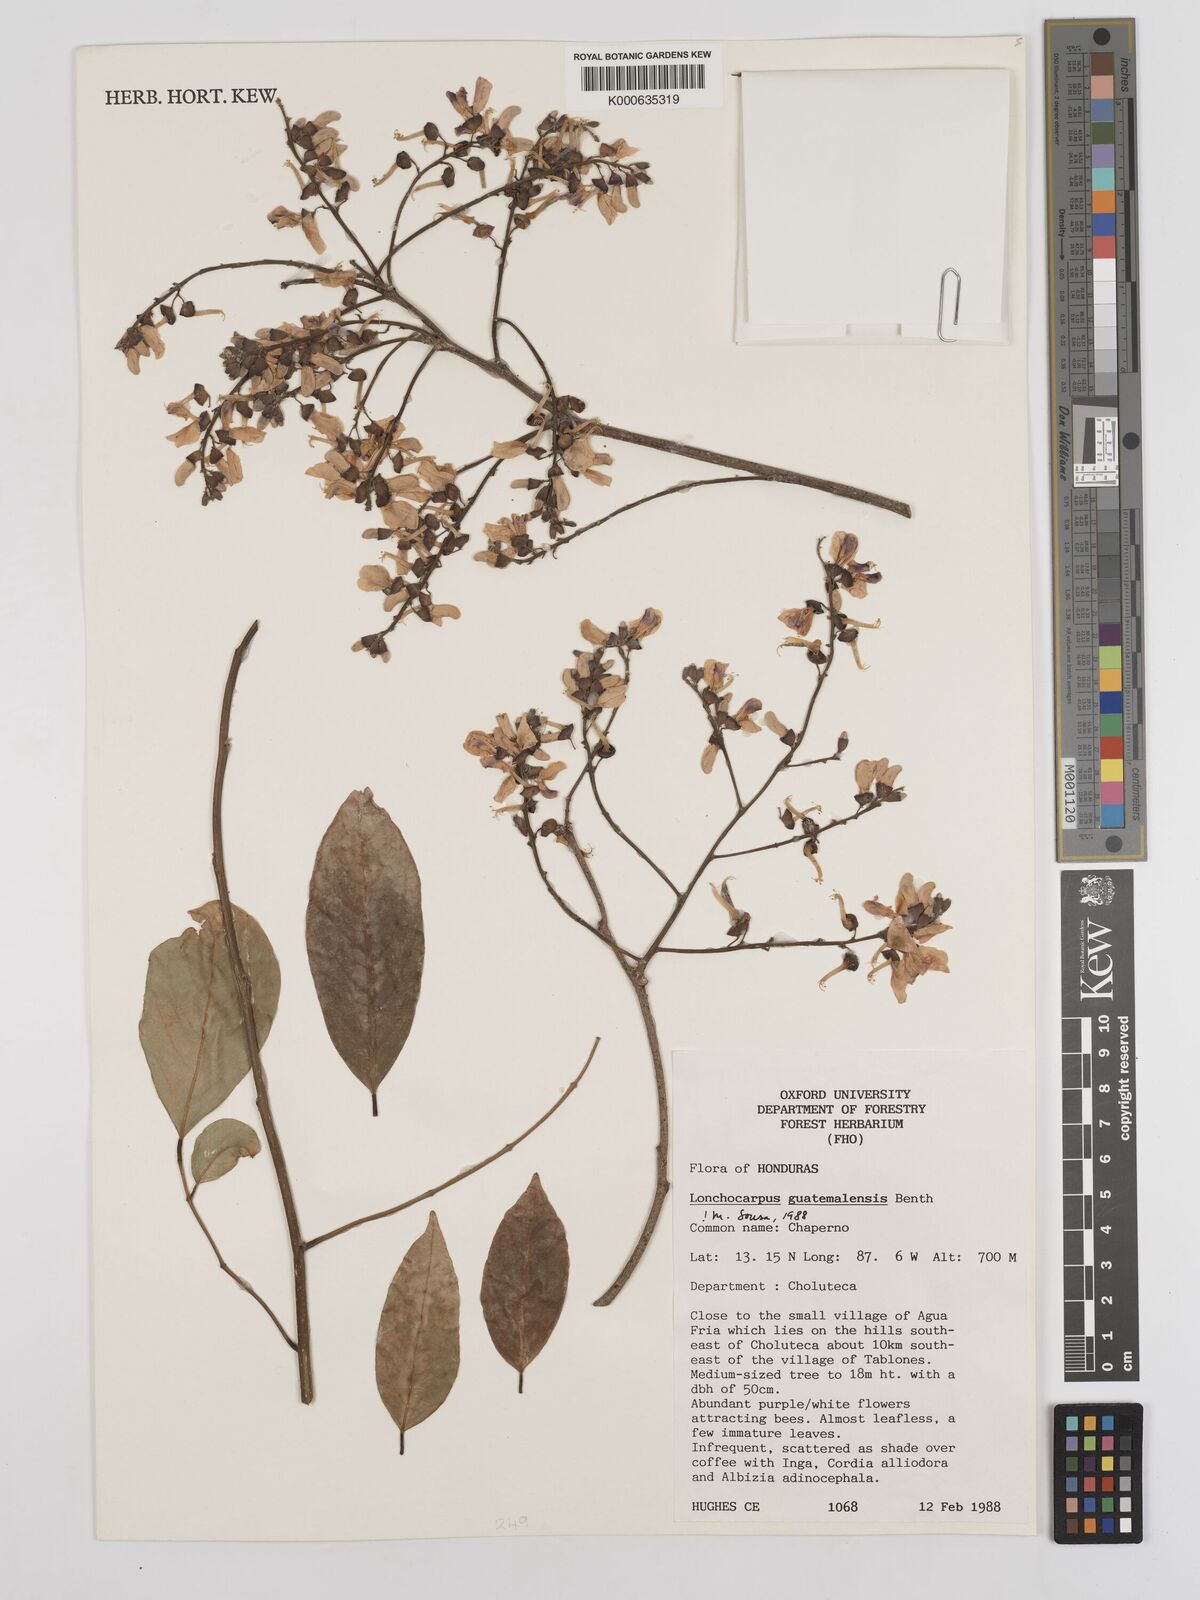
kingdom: Plantae
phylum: Tracheophyta
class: Magnoliopsida
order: Fabales
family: Fabaceae
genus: Lonchocarpus
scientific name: Lonchocarpus guatemalensis
